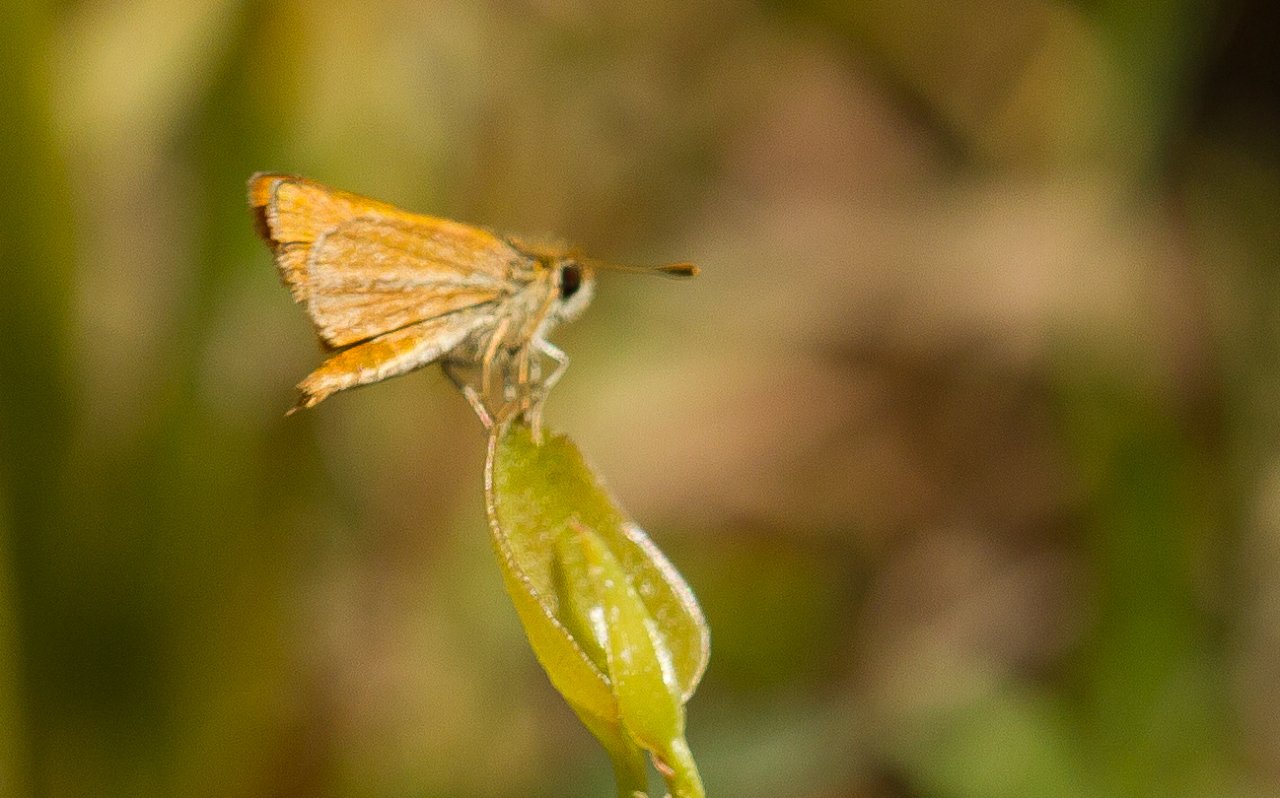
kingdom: Animalia
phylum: Arthropoda
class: Insecta
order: Lepidoptera
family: Hesperiidae
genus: Copaeodes
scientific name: Copaeodes minima
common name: Southern Skipperling
